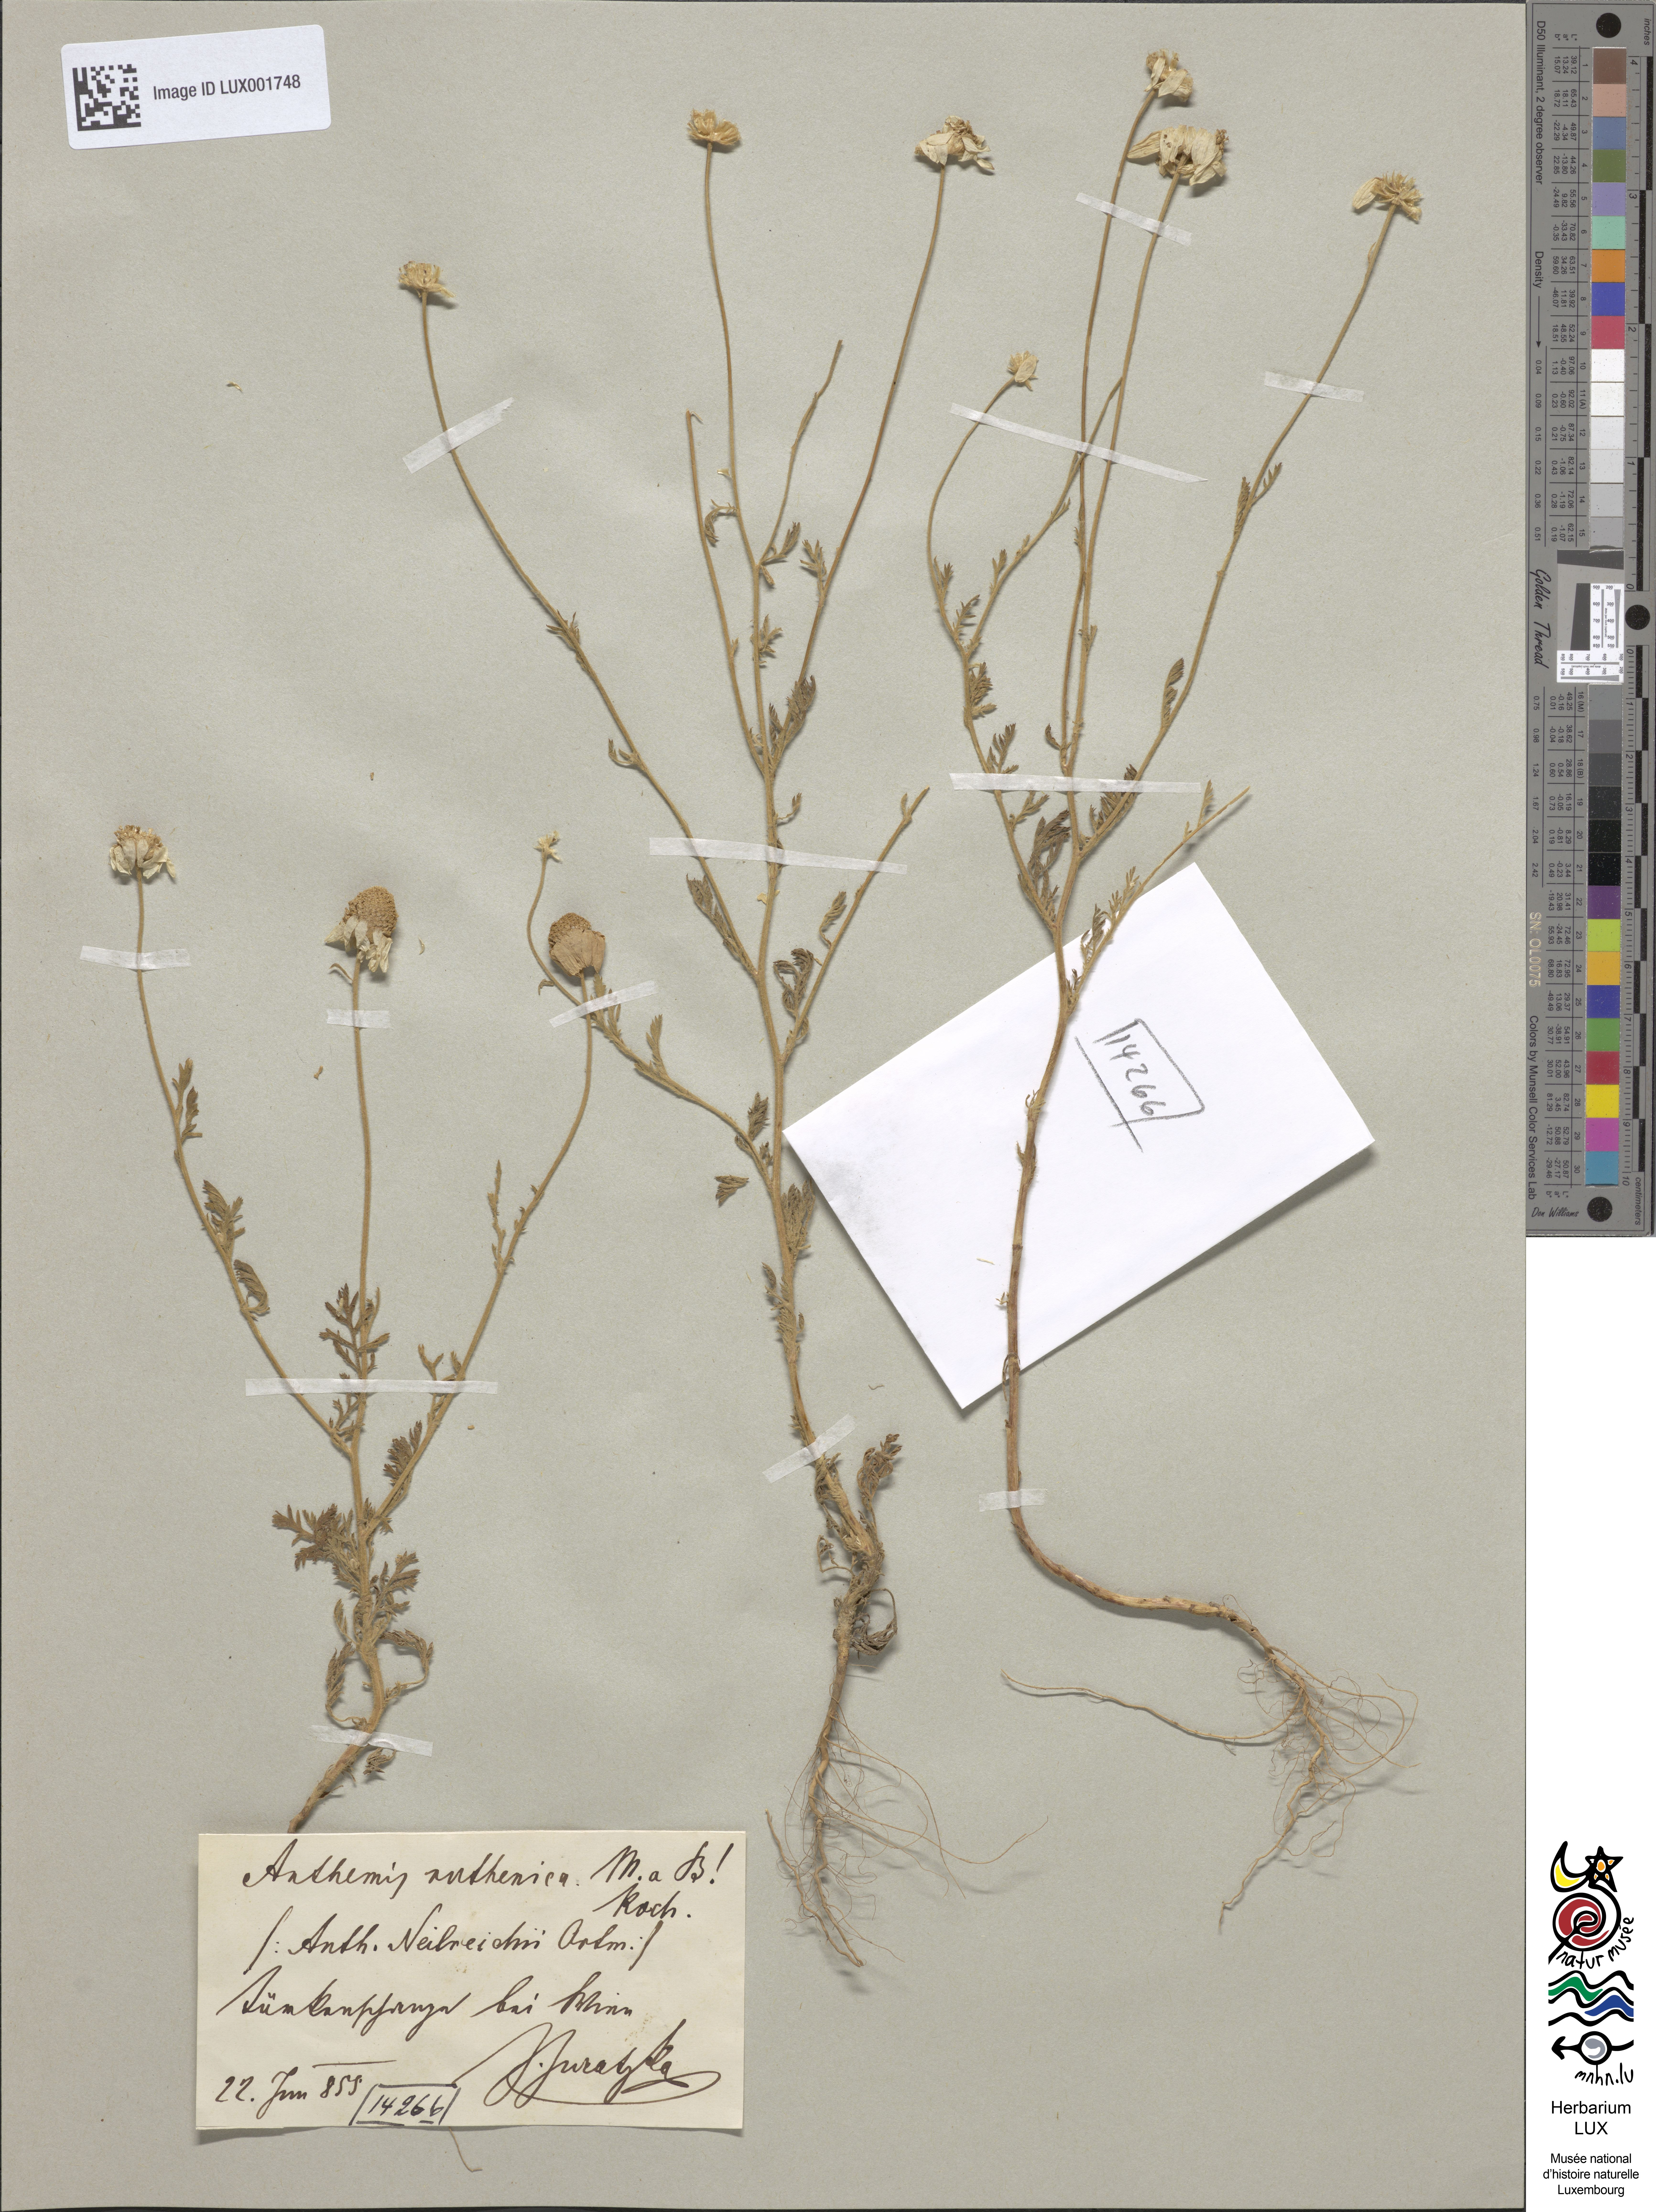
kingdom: Plantae
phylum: Tracheophyta
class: Magnoliopsida
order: Asterales
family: Asteraceae
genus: Anthemis
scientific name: Anthemis ruthenica
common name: Eastern chamomile
